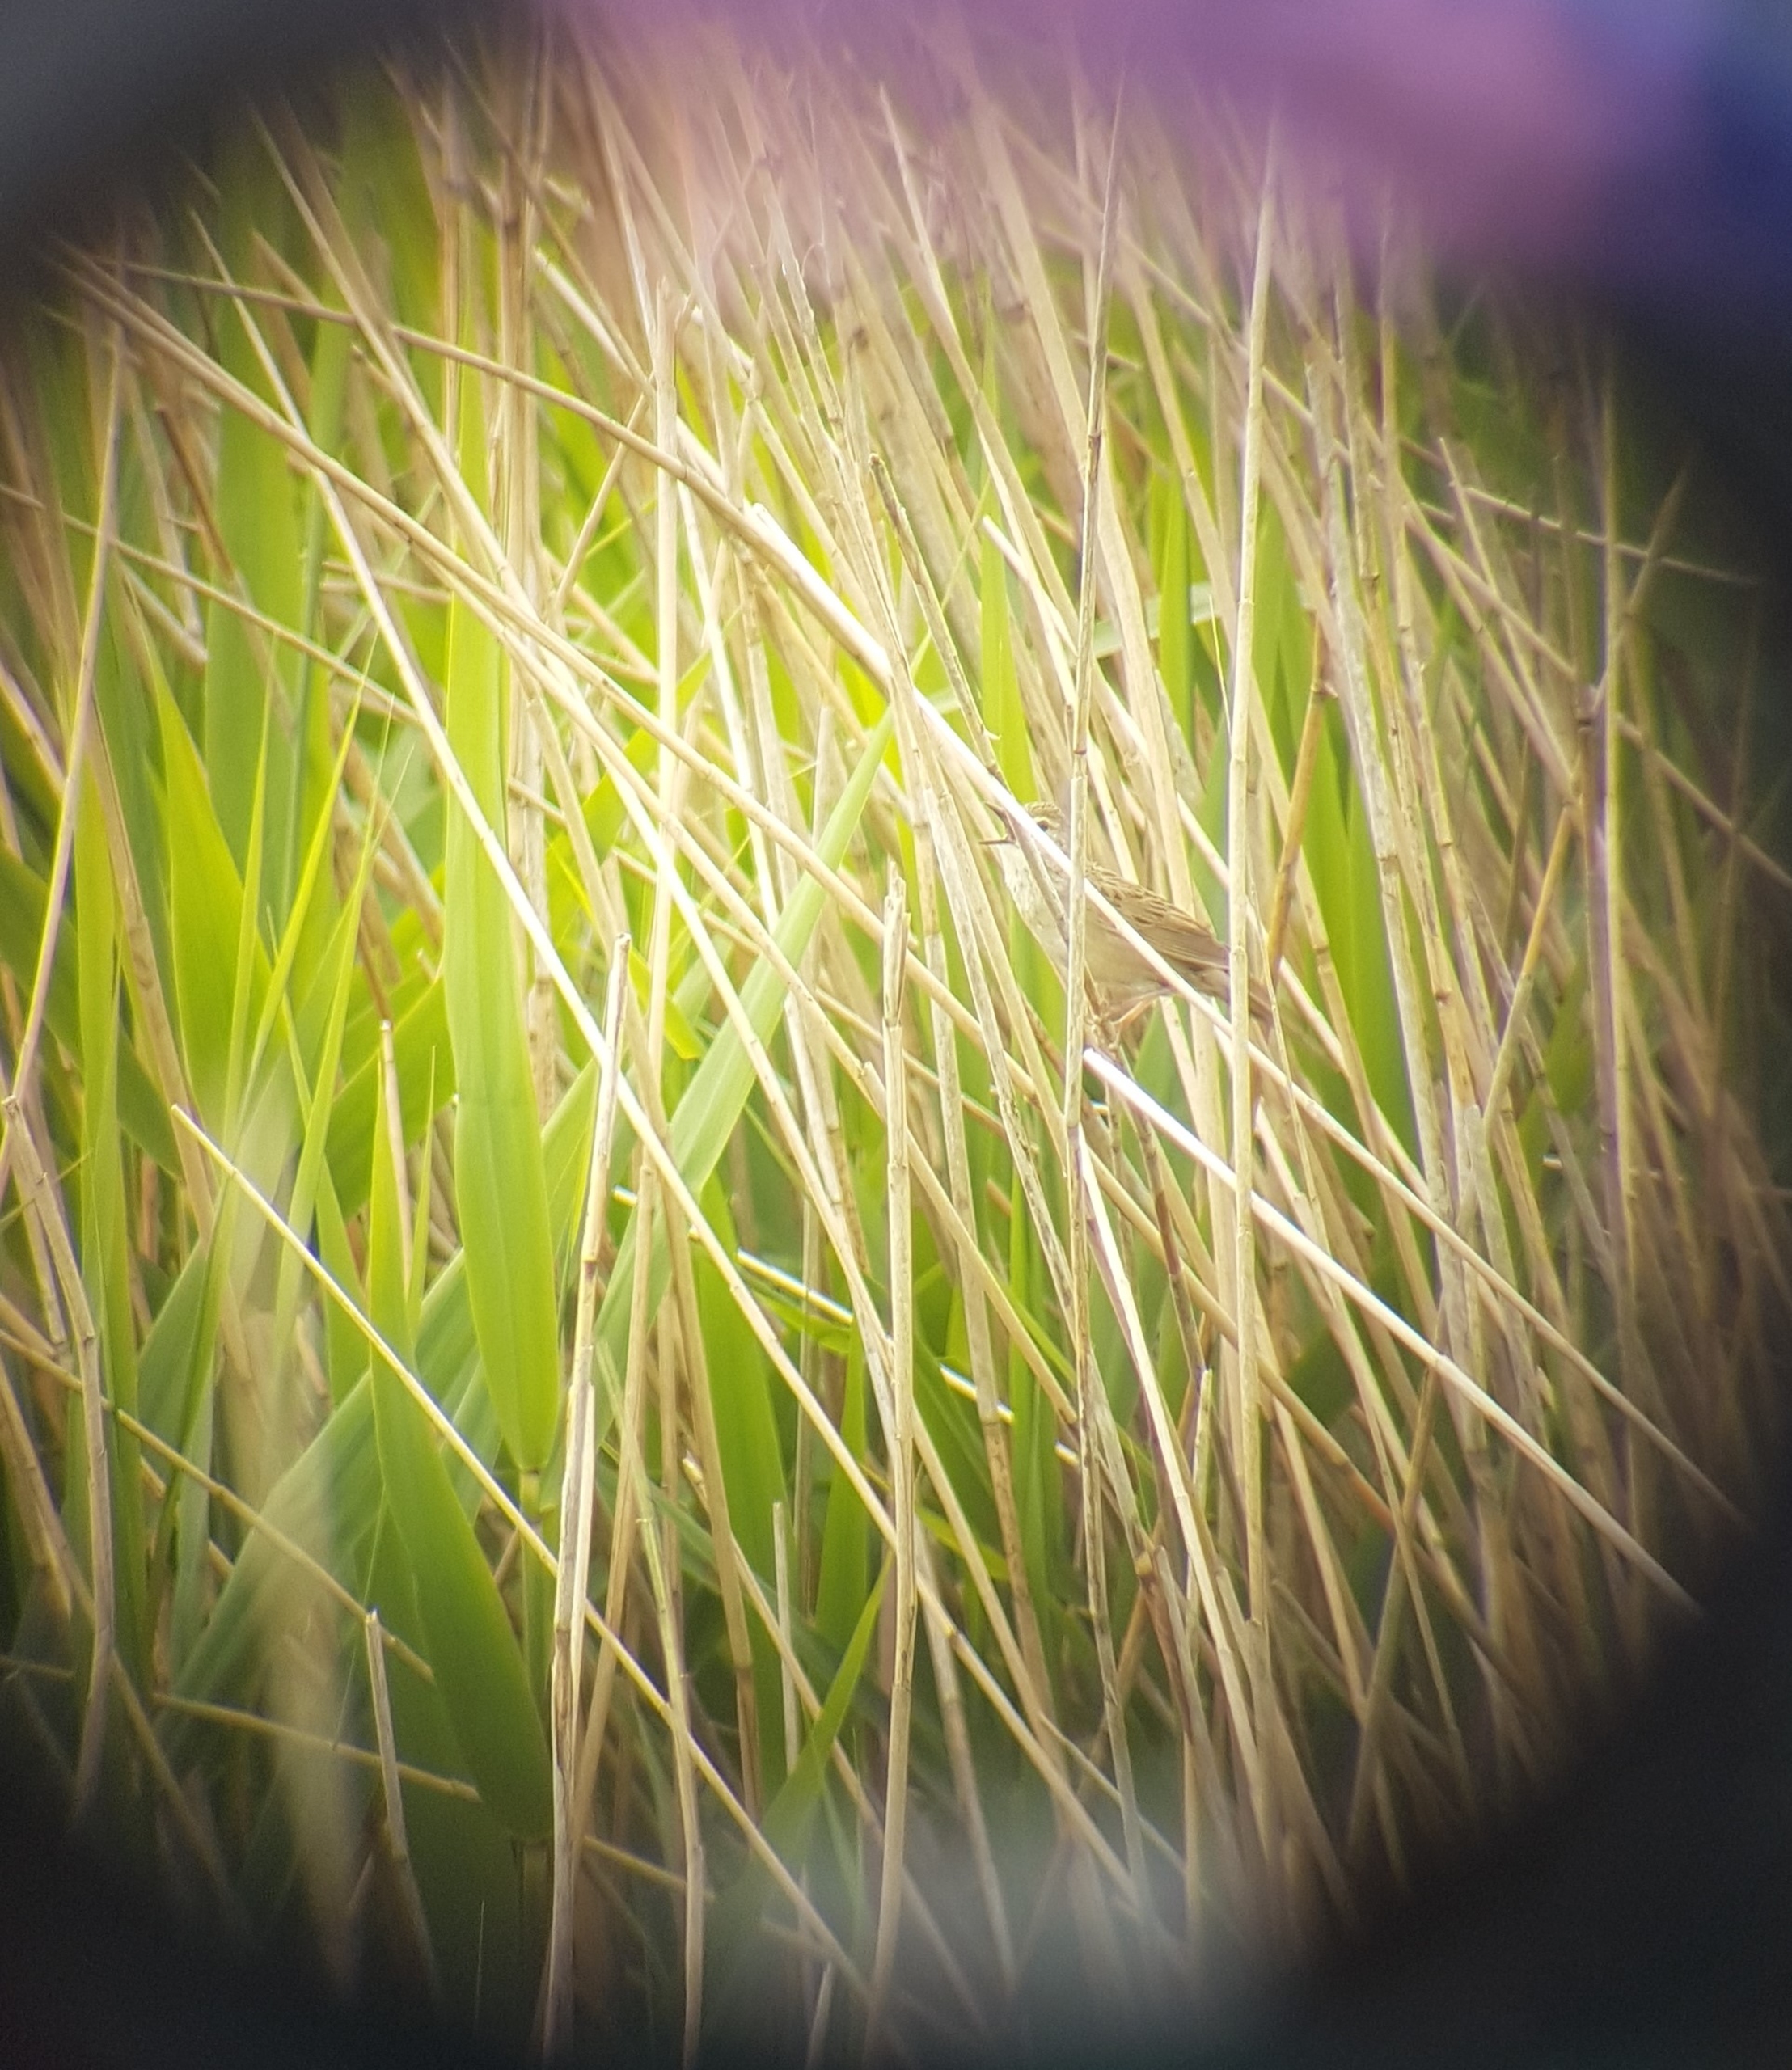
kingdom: Animalia
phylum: Chordata
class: Aves
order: Passeriformes
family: Locustellidae
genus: Locustella
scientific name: Locustella naevia
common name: Græshoppesanger
